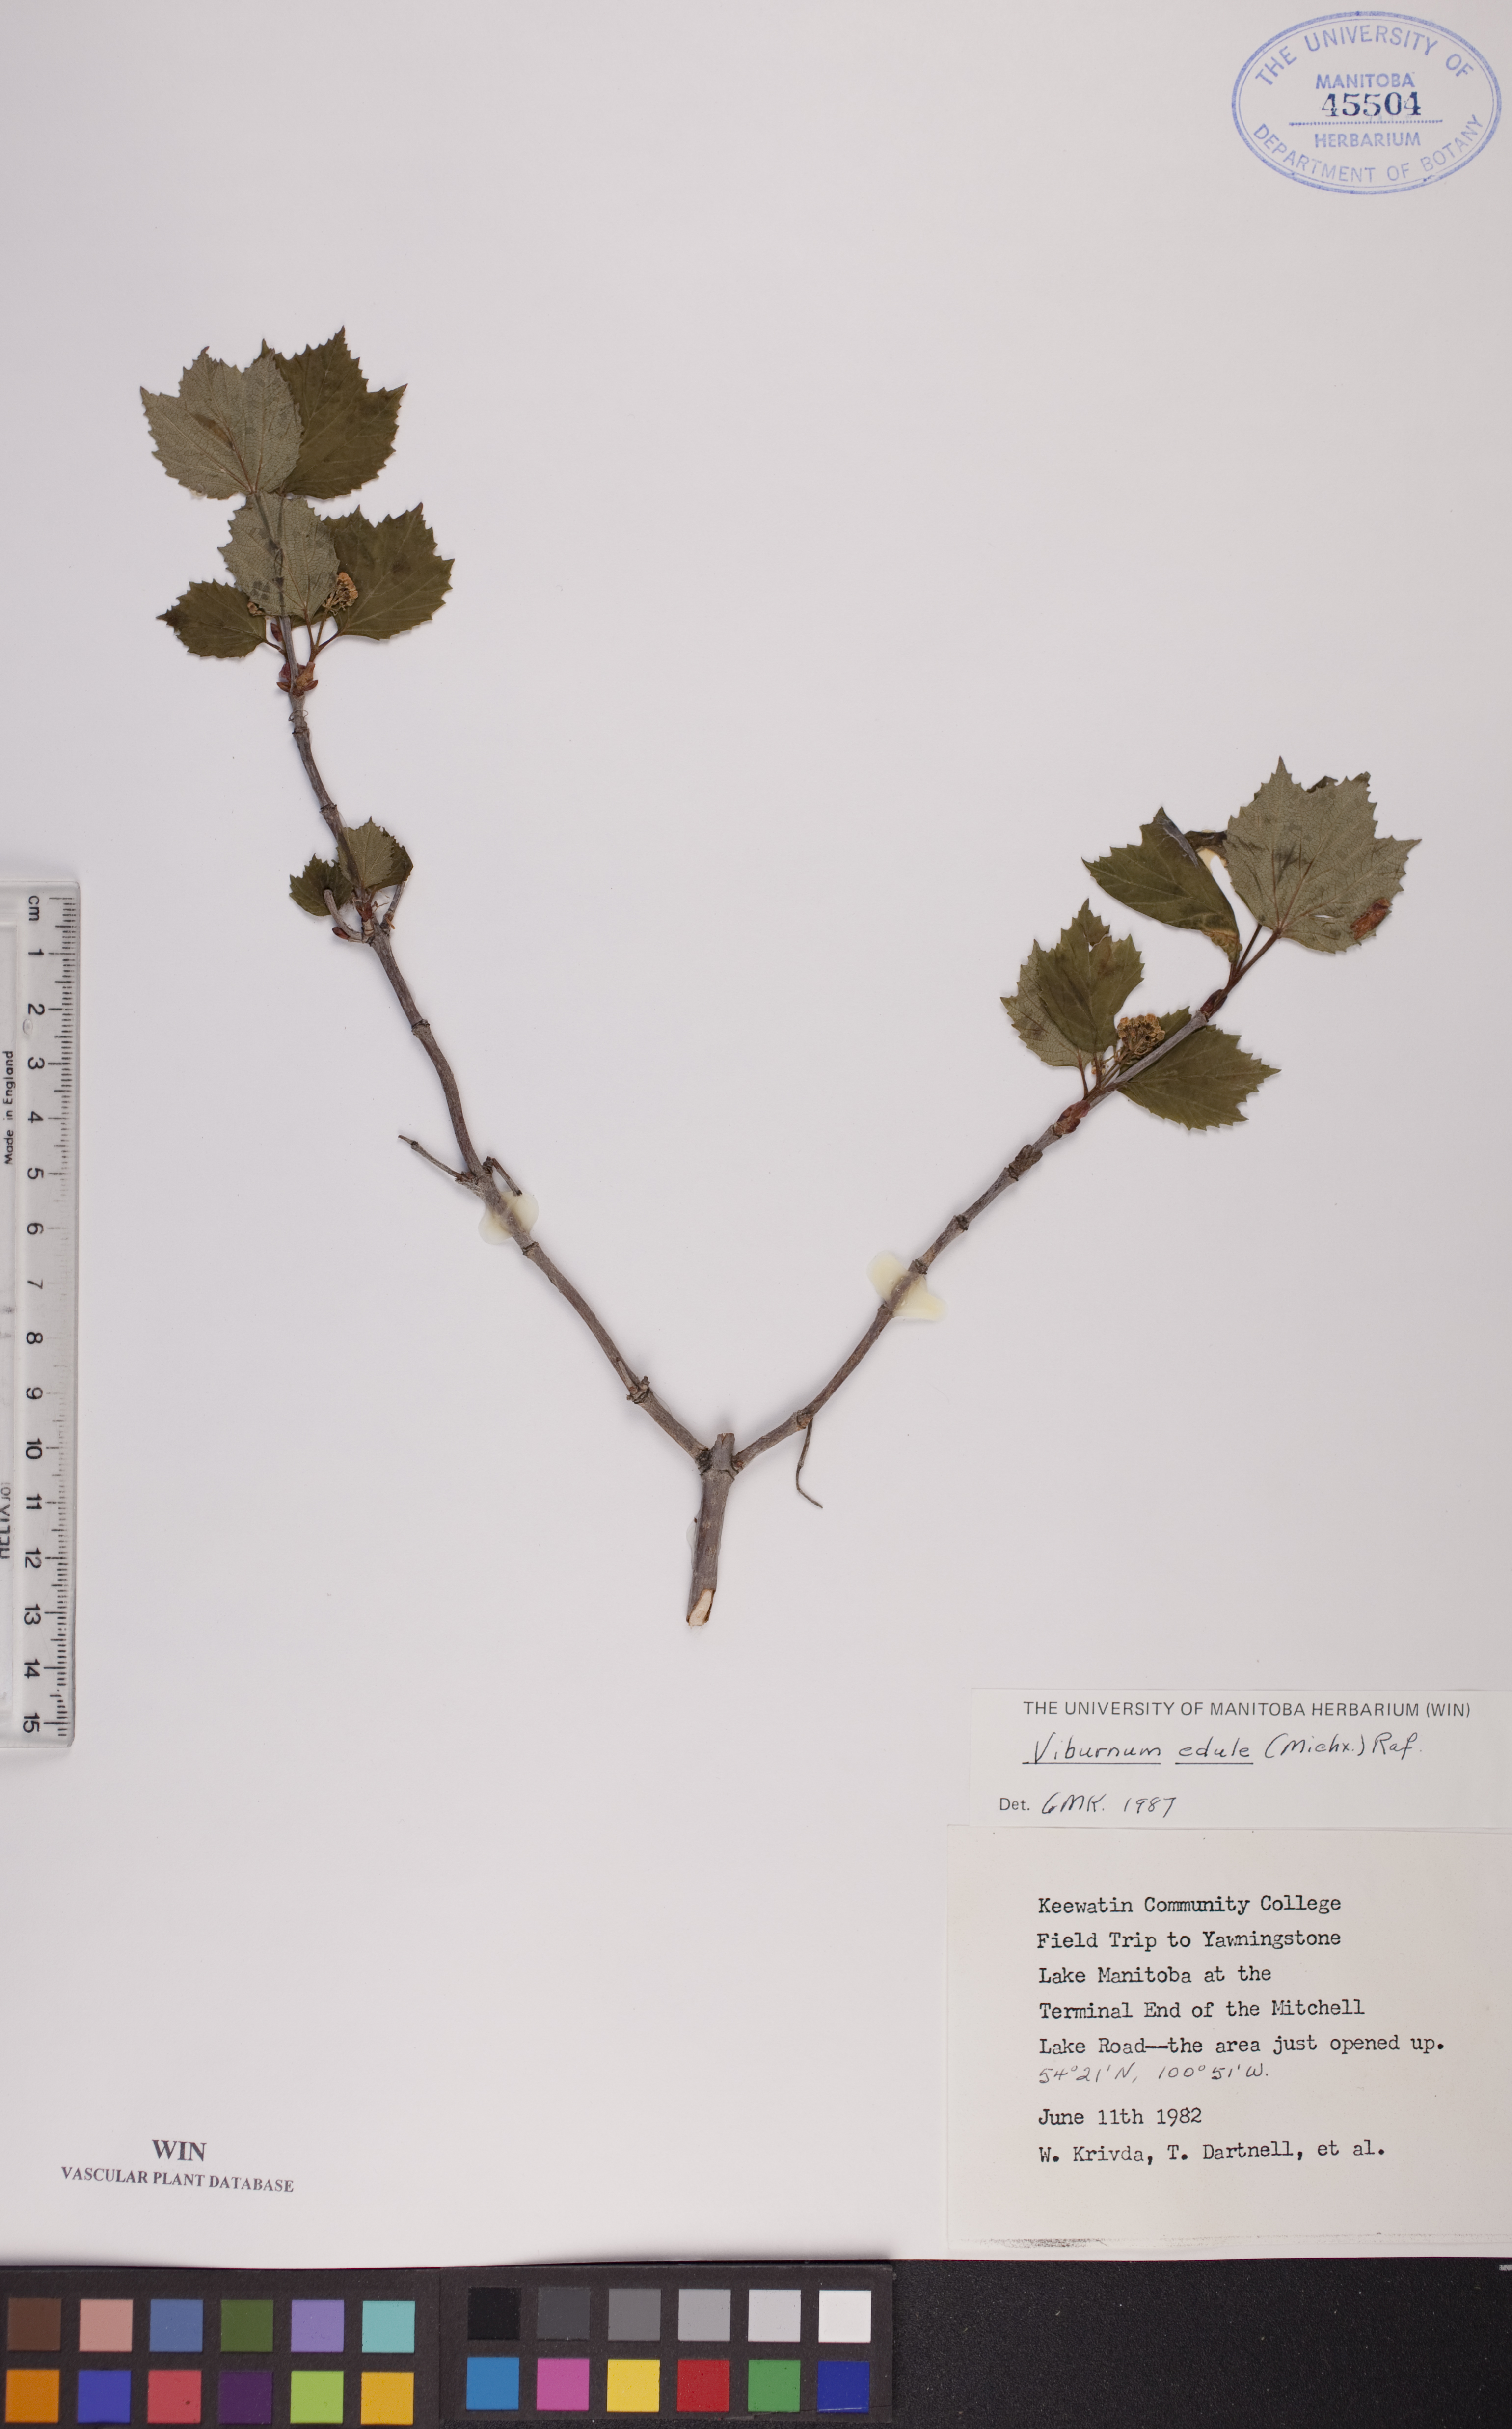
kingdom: Plantae
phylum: Tracheophyta
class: Magnoliopsida
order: Dipsacales
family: Viburnaceae
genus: Viburnum
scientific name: Viburnum edule
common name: Mooseberry
